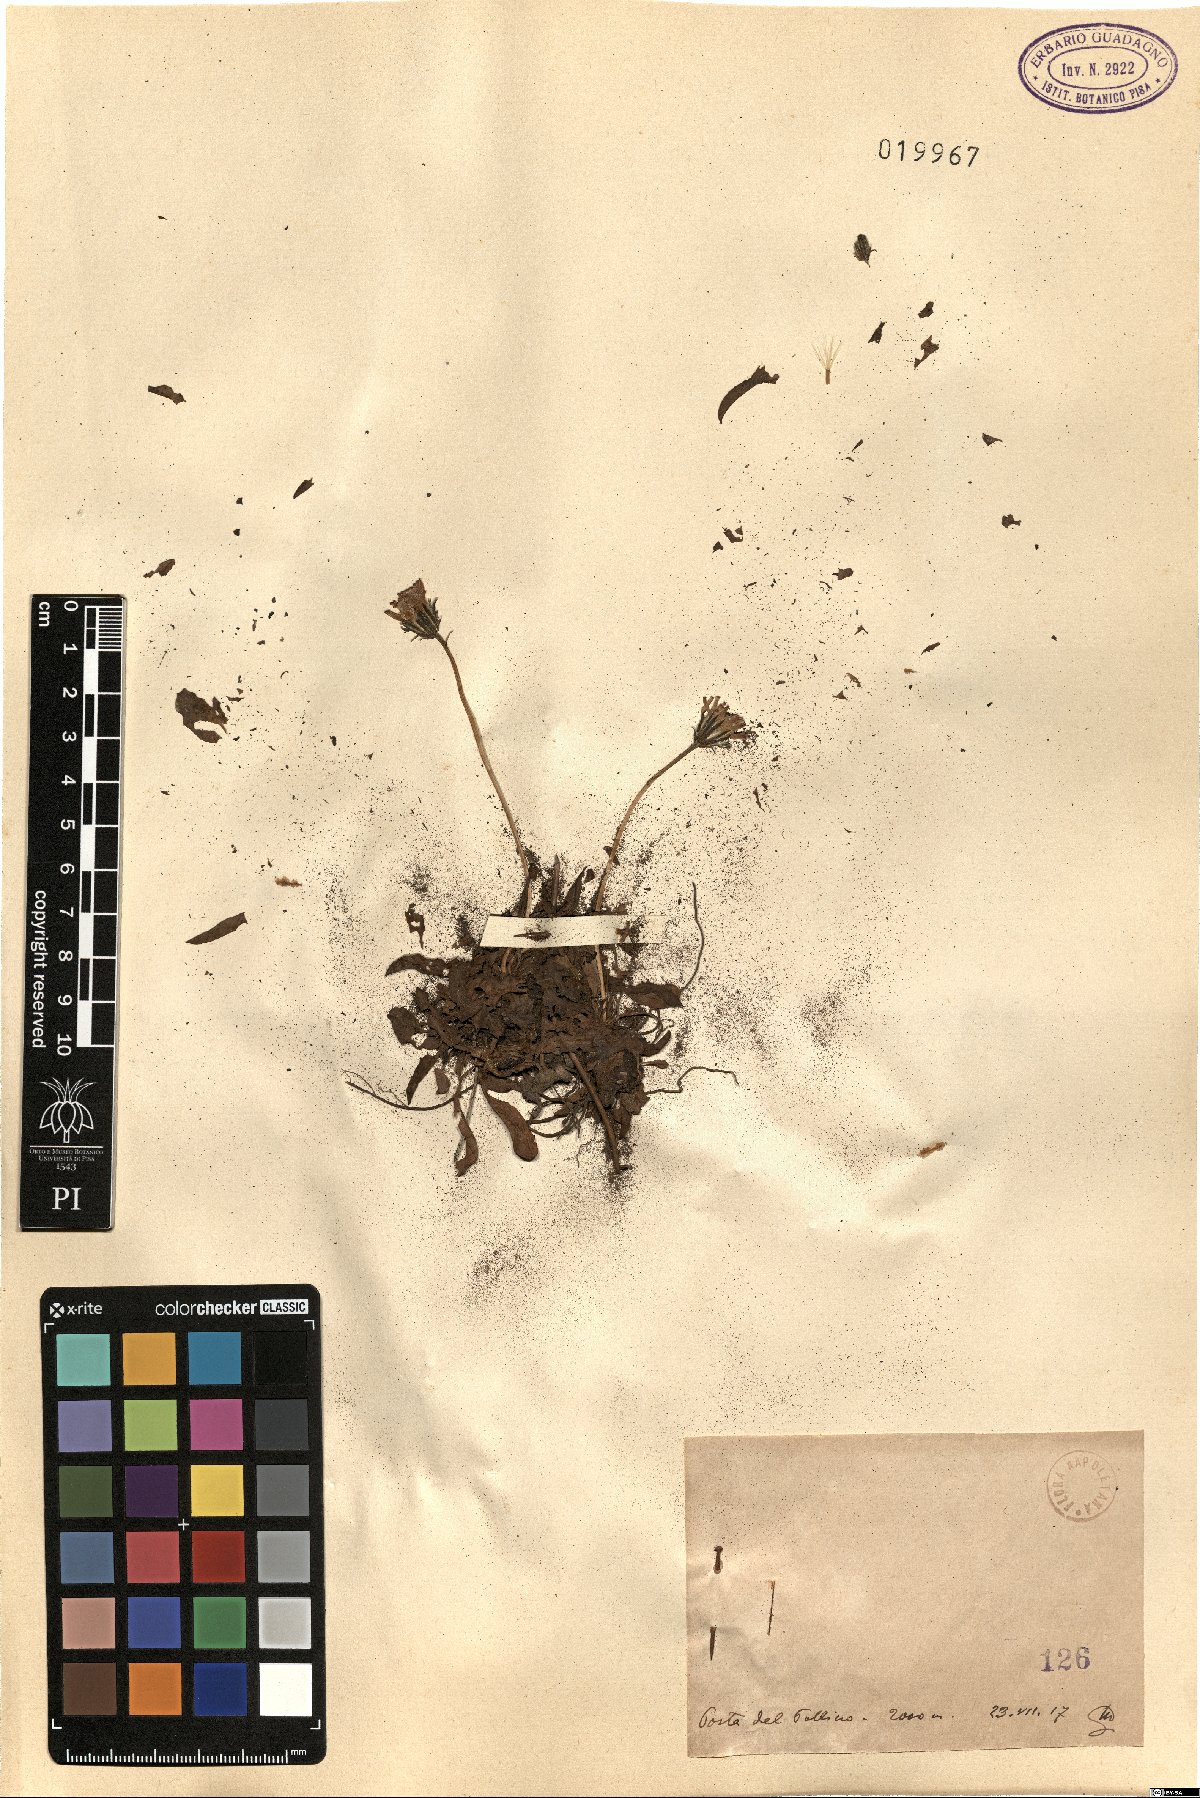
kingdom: Plantae
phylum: Tracheophyta
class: Magnoliopsida
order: Asterales
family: Asteraceae
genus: Hieracium
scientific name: Hieracium
